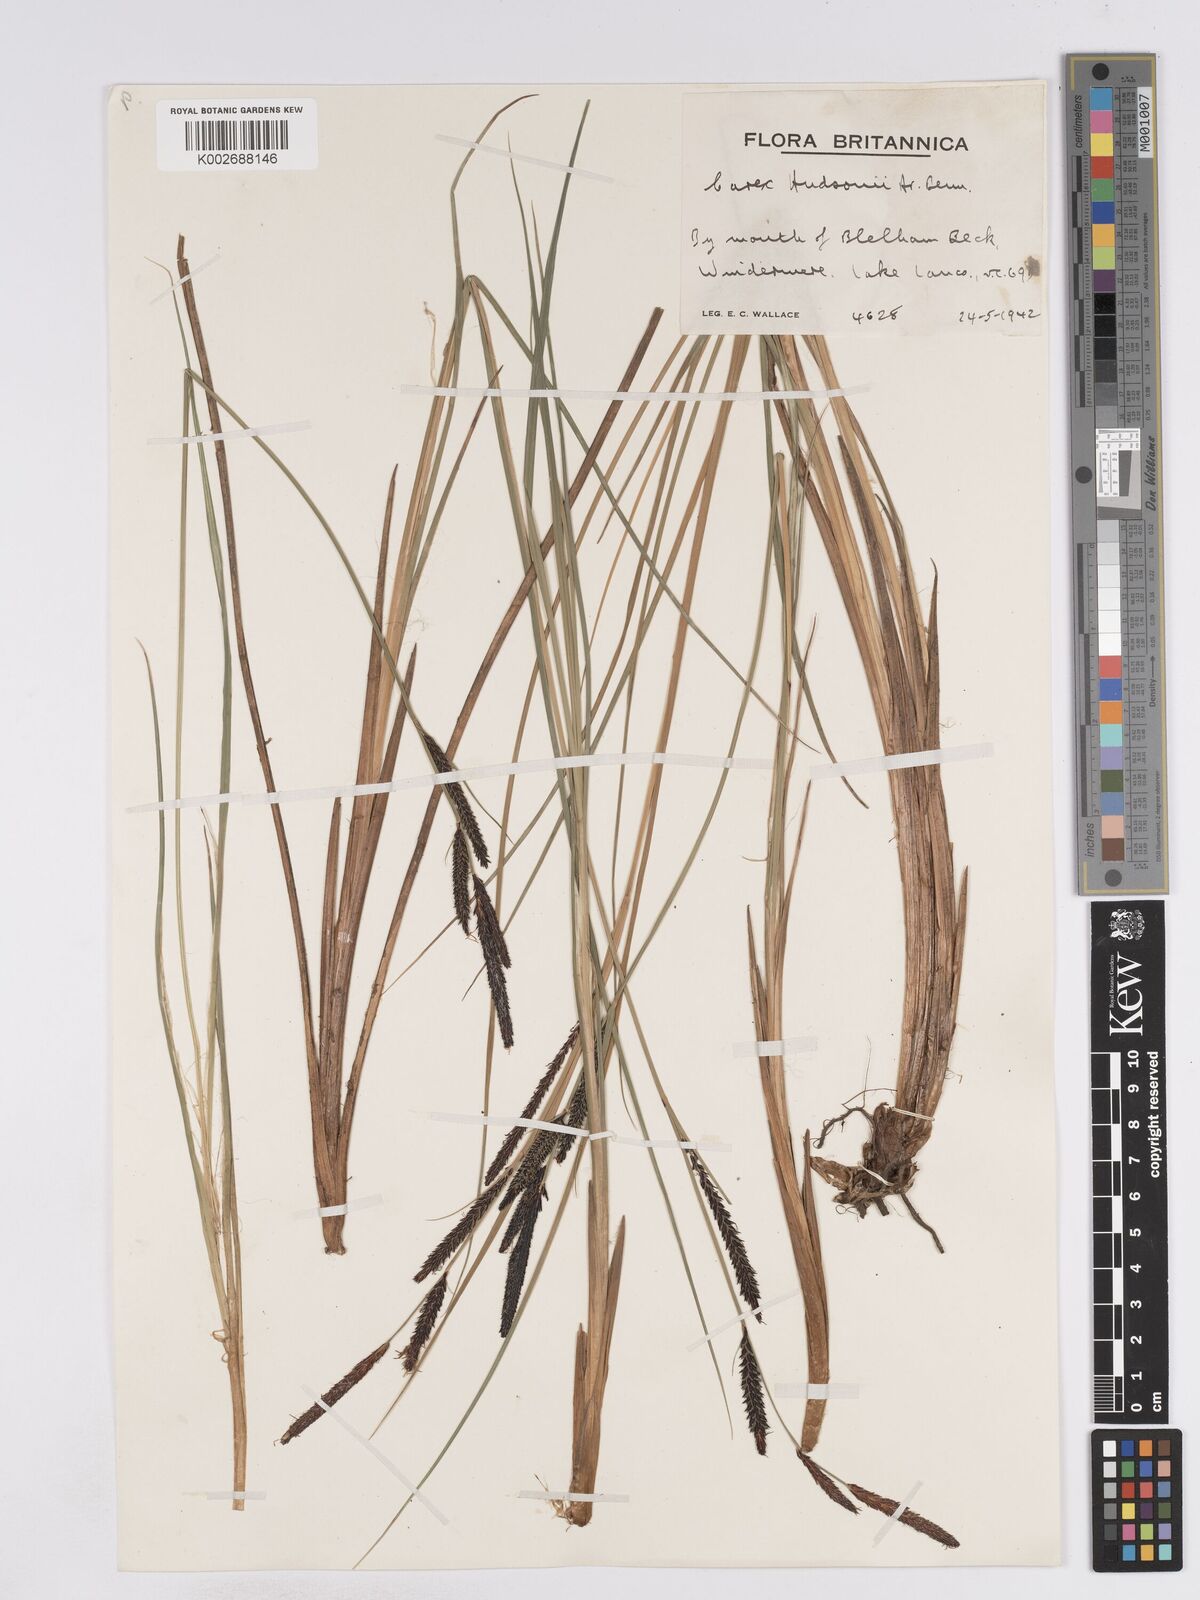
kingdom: Plantae
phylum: Tracheophyta
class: Liliopsida
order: Poales
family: Cyperaceae
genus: Carex
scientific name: Carex elata
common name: Tufted sedge
